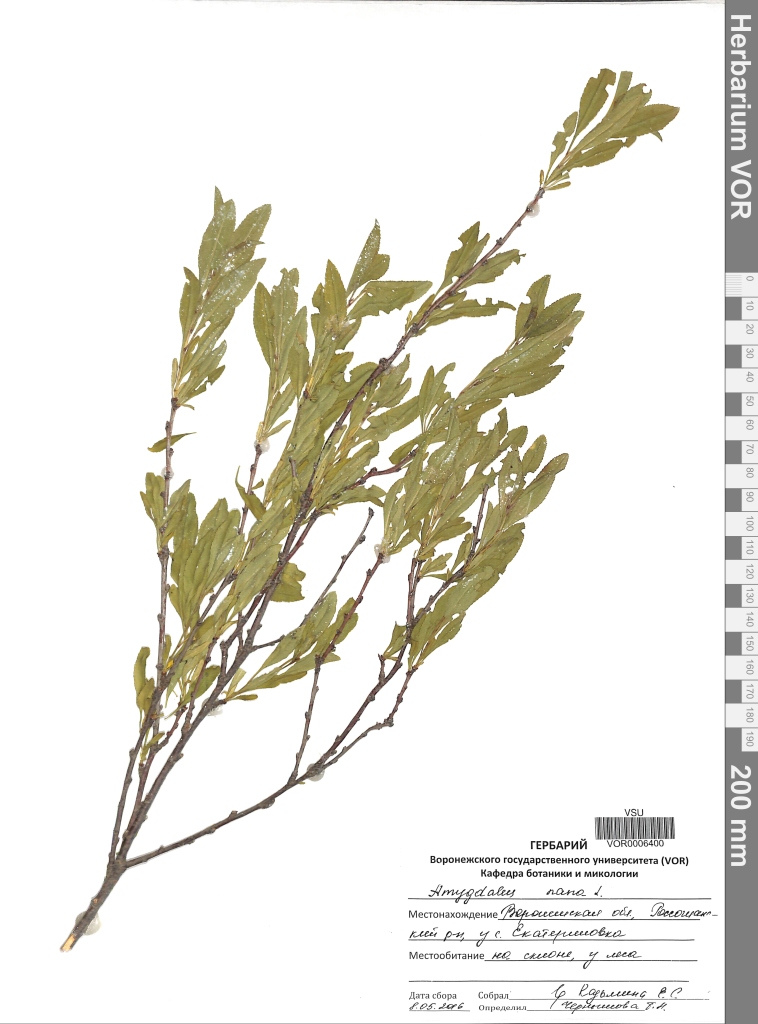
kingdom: Plantae
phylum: Tracheophyta
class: Magnoliopsida
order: Rosales
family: Rosaceae
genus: Prunus
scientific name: Prunus tenella
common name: Dwarf russian almond
